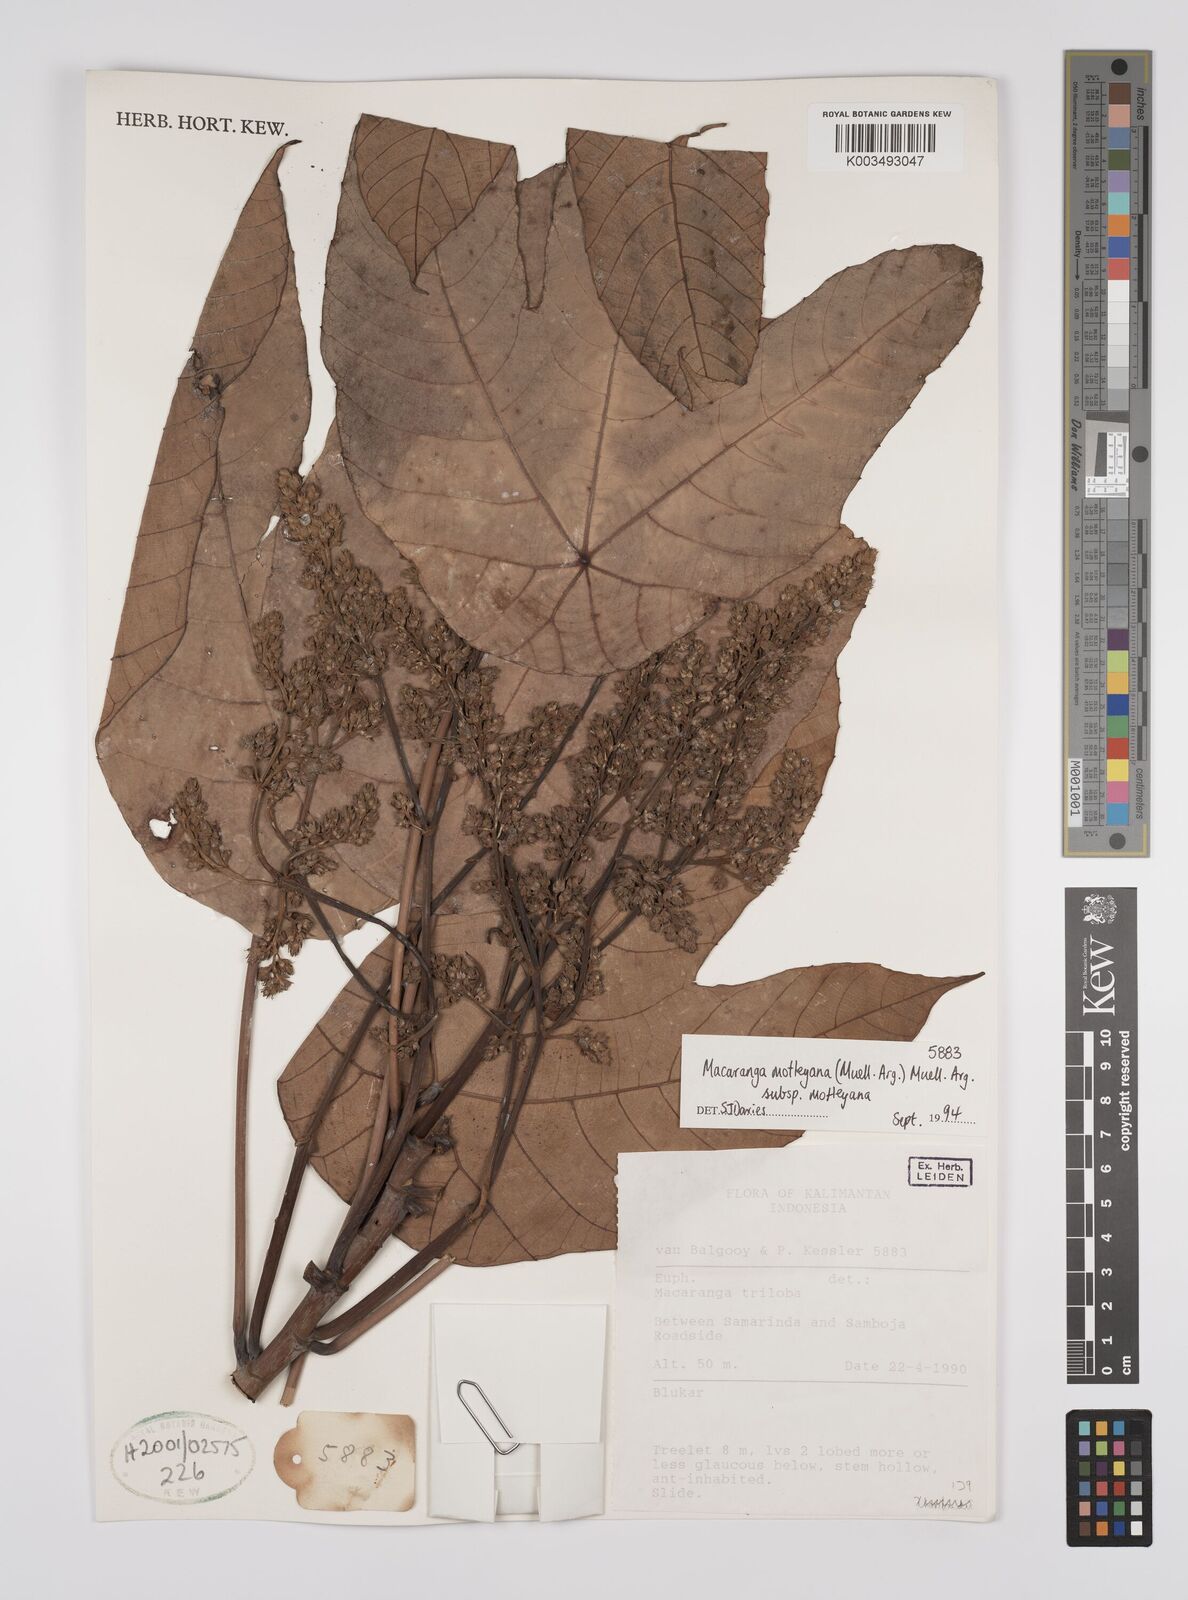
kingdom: Plantae
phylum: Tracheophyta
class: Magnoliopsida
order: Malpighiales
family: Euphorbiaceae
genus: Macaranga
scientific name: Macaranga motleyana
